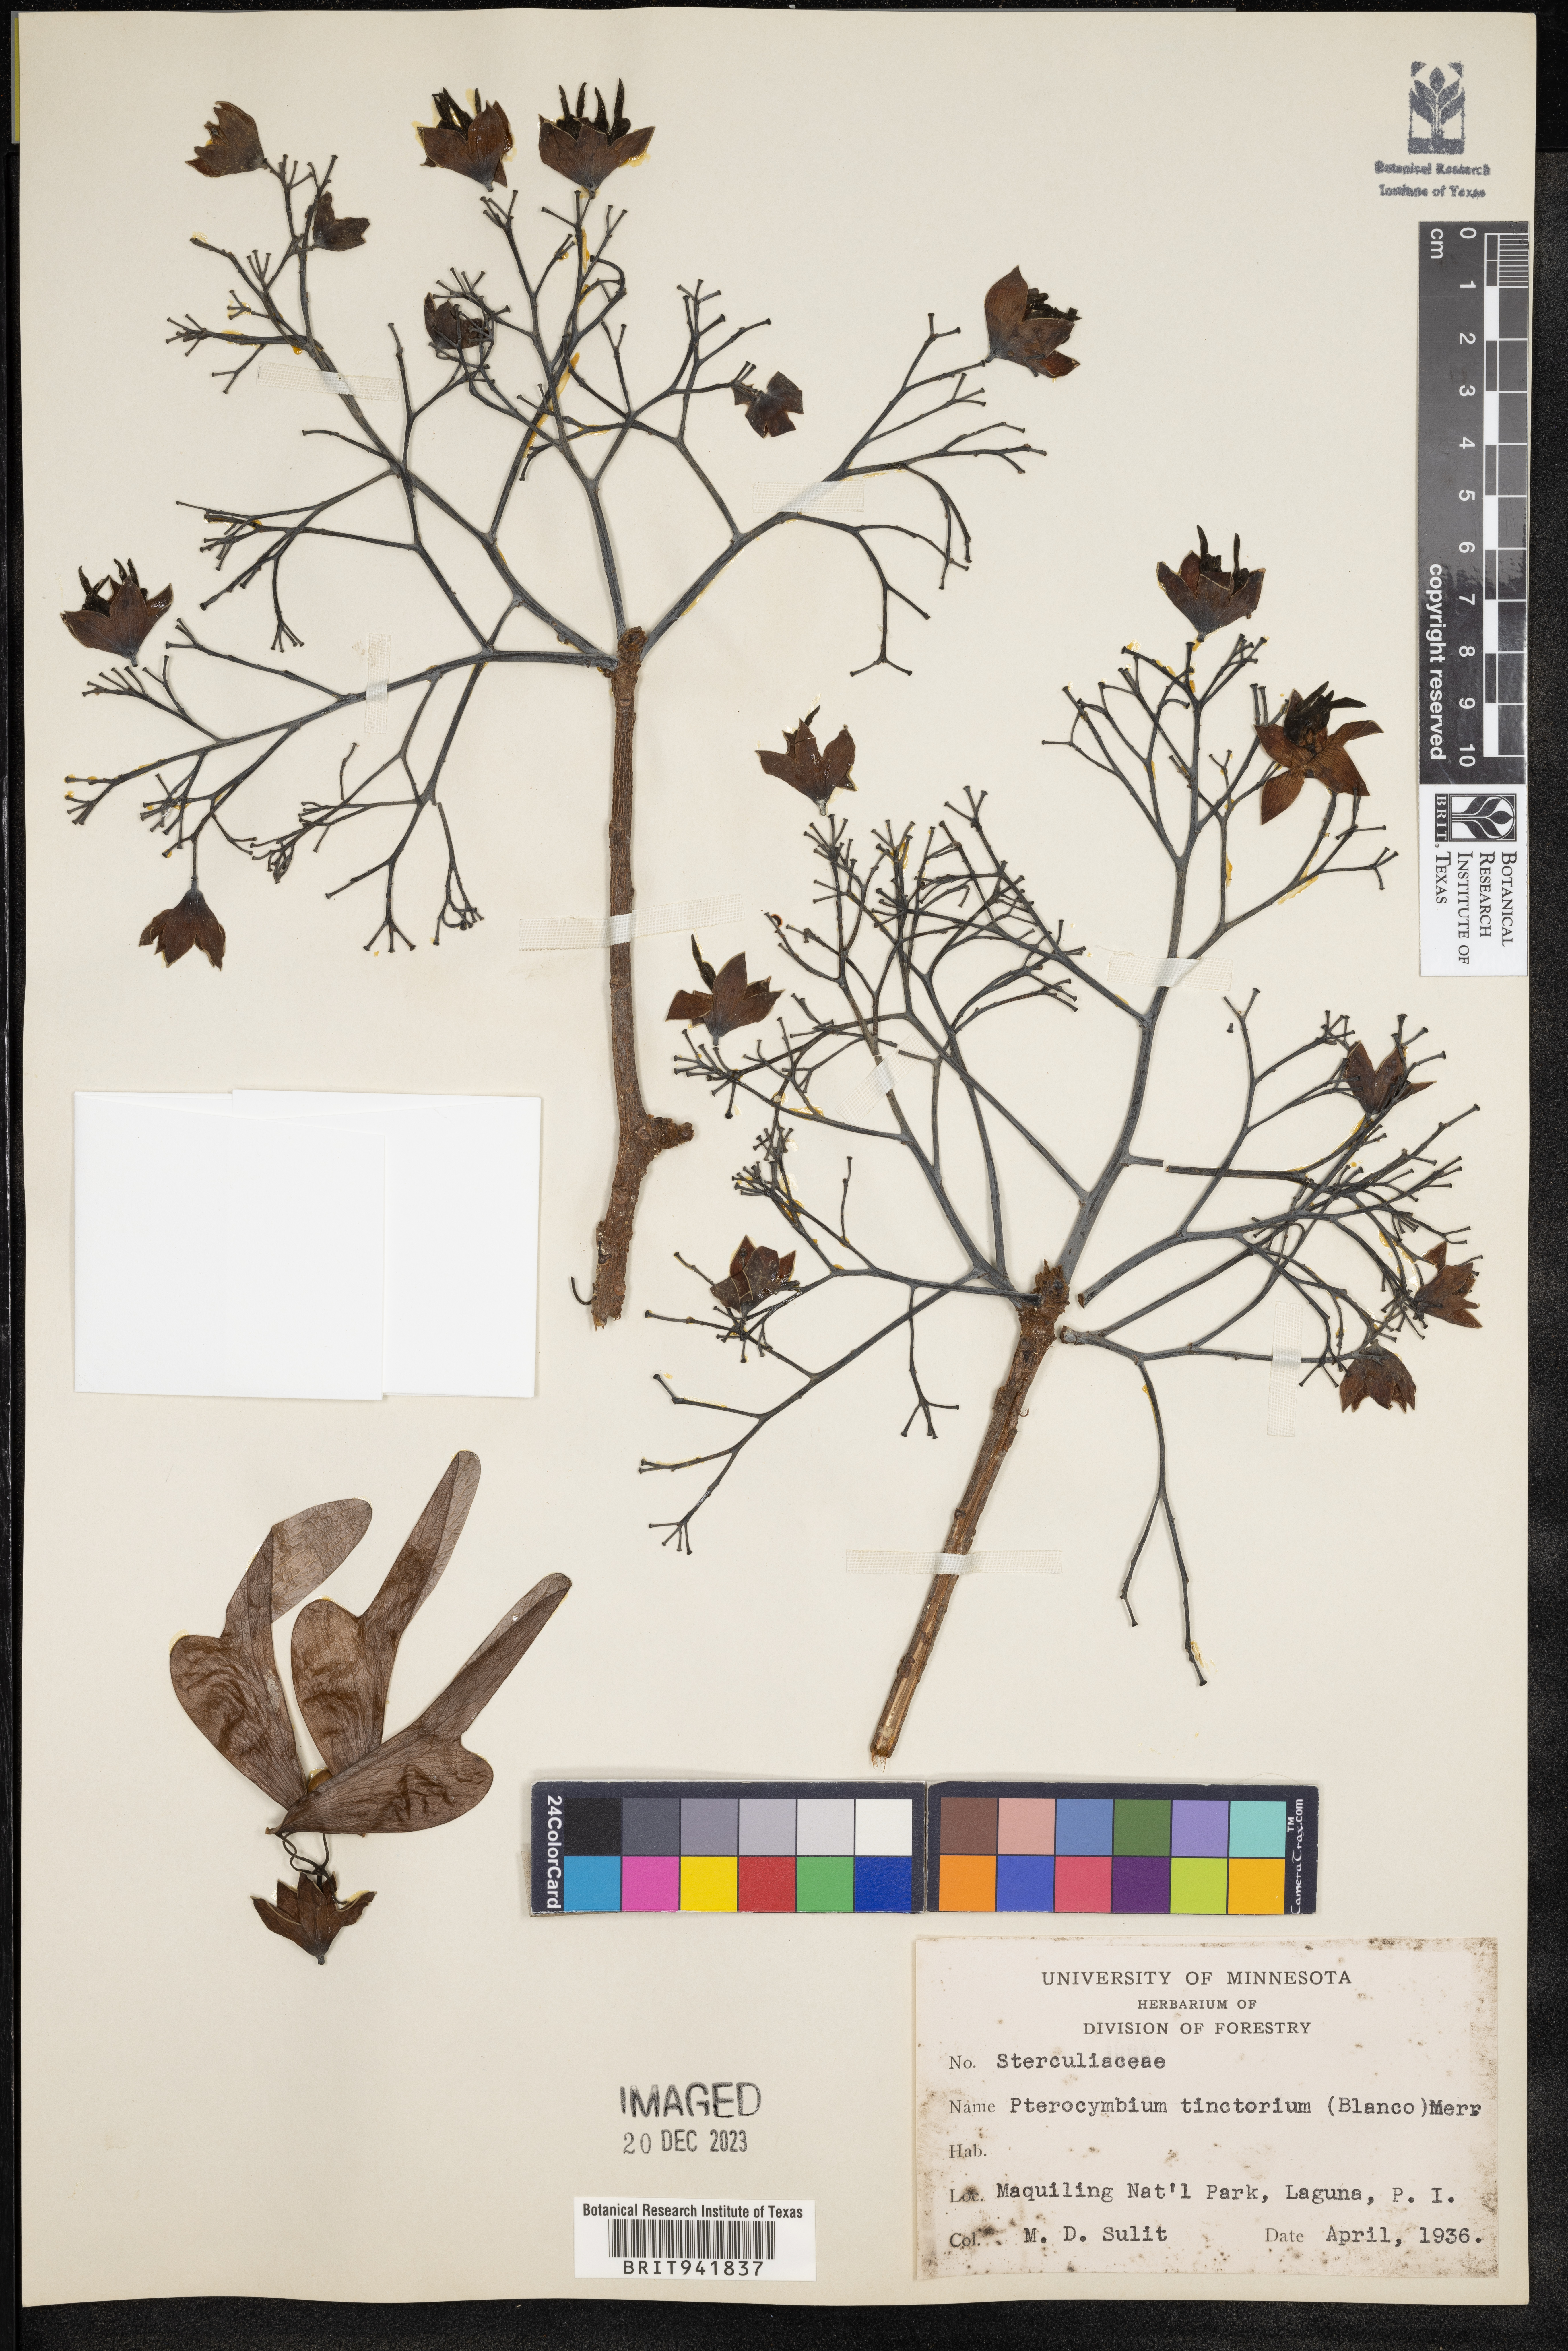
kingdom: Plantae
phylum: Tracheophyta
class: Magnoliopsida
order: Malvales
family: Malvaceae
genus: Pterocymbium
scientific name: Pterocymbium
